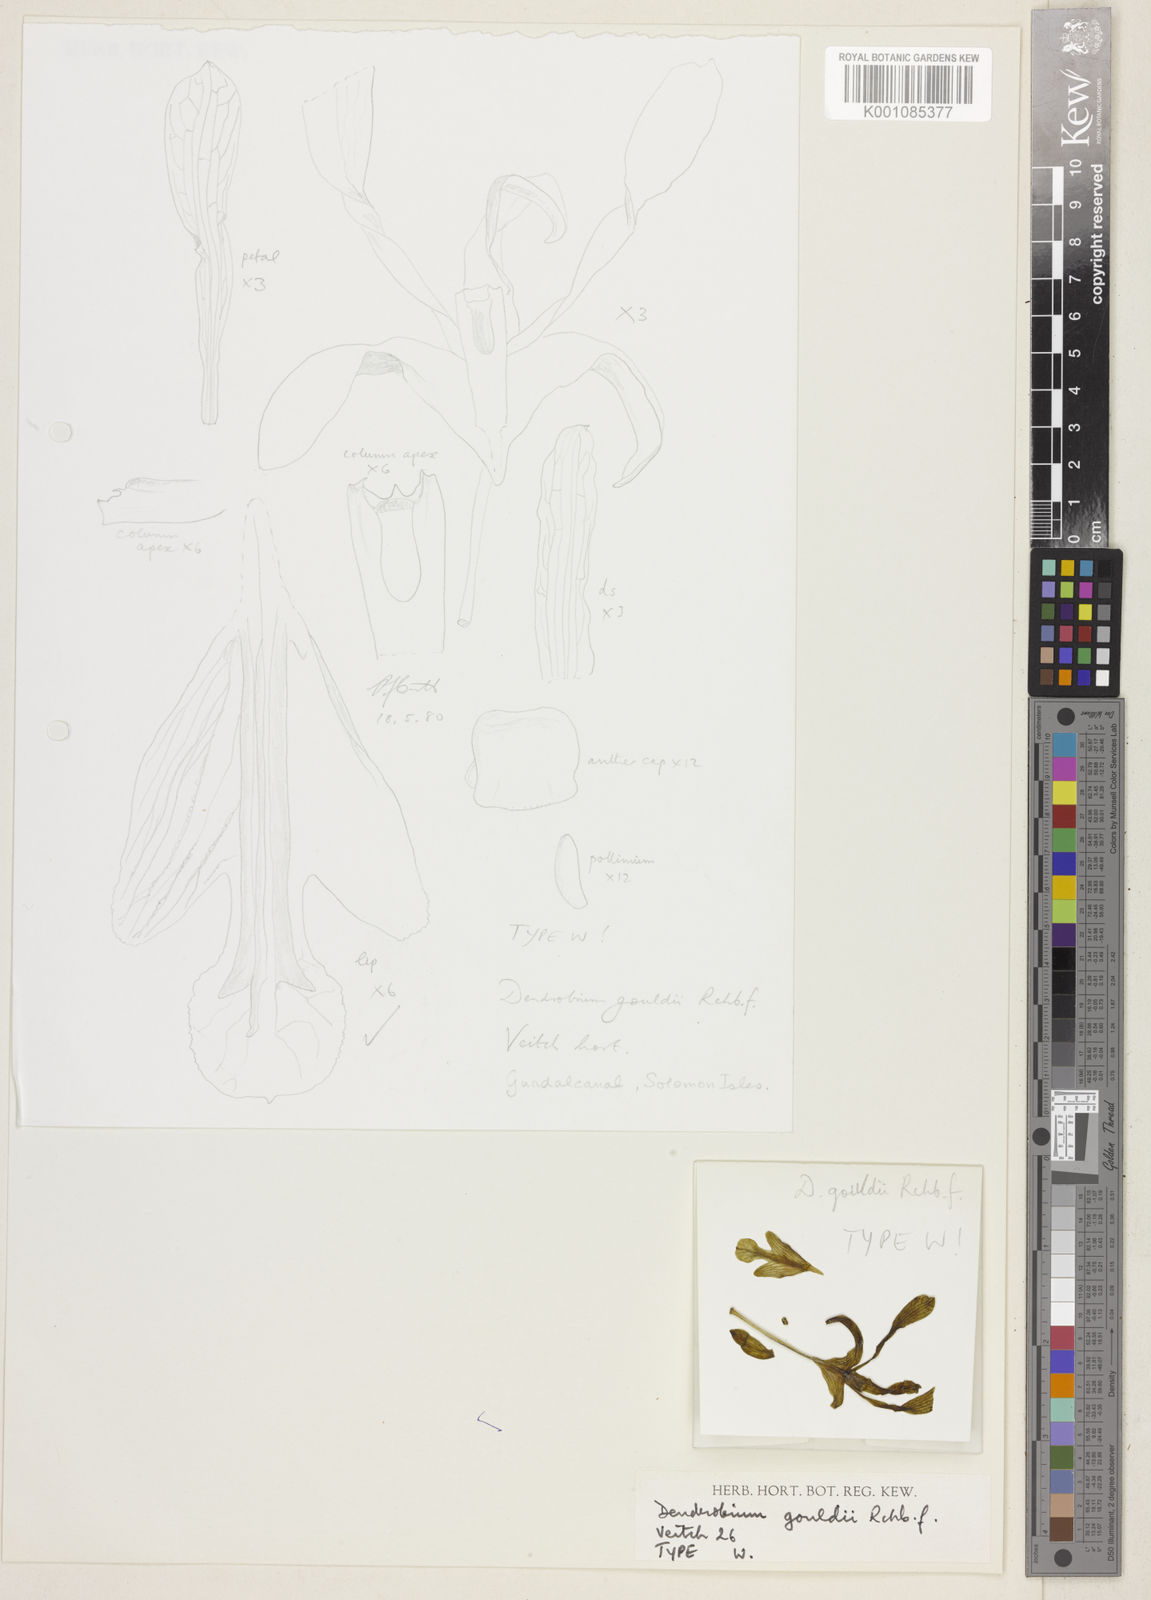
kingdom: Plantae
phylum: Tracheophyta
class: Liliopsida
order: Asparagales
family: Orchidaceae
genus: Dendrobium
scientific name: Dendrobium gouldii
